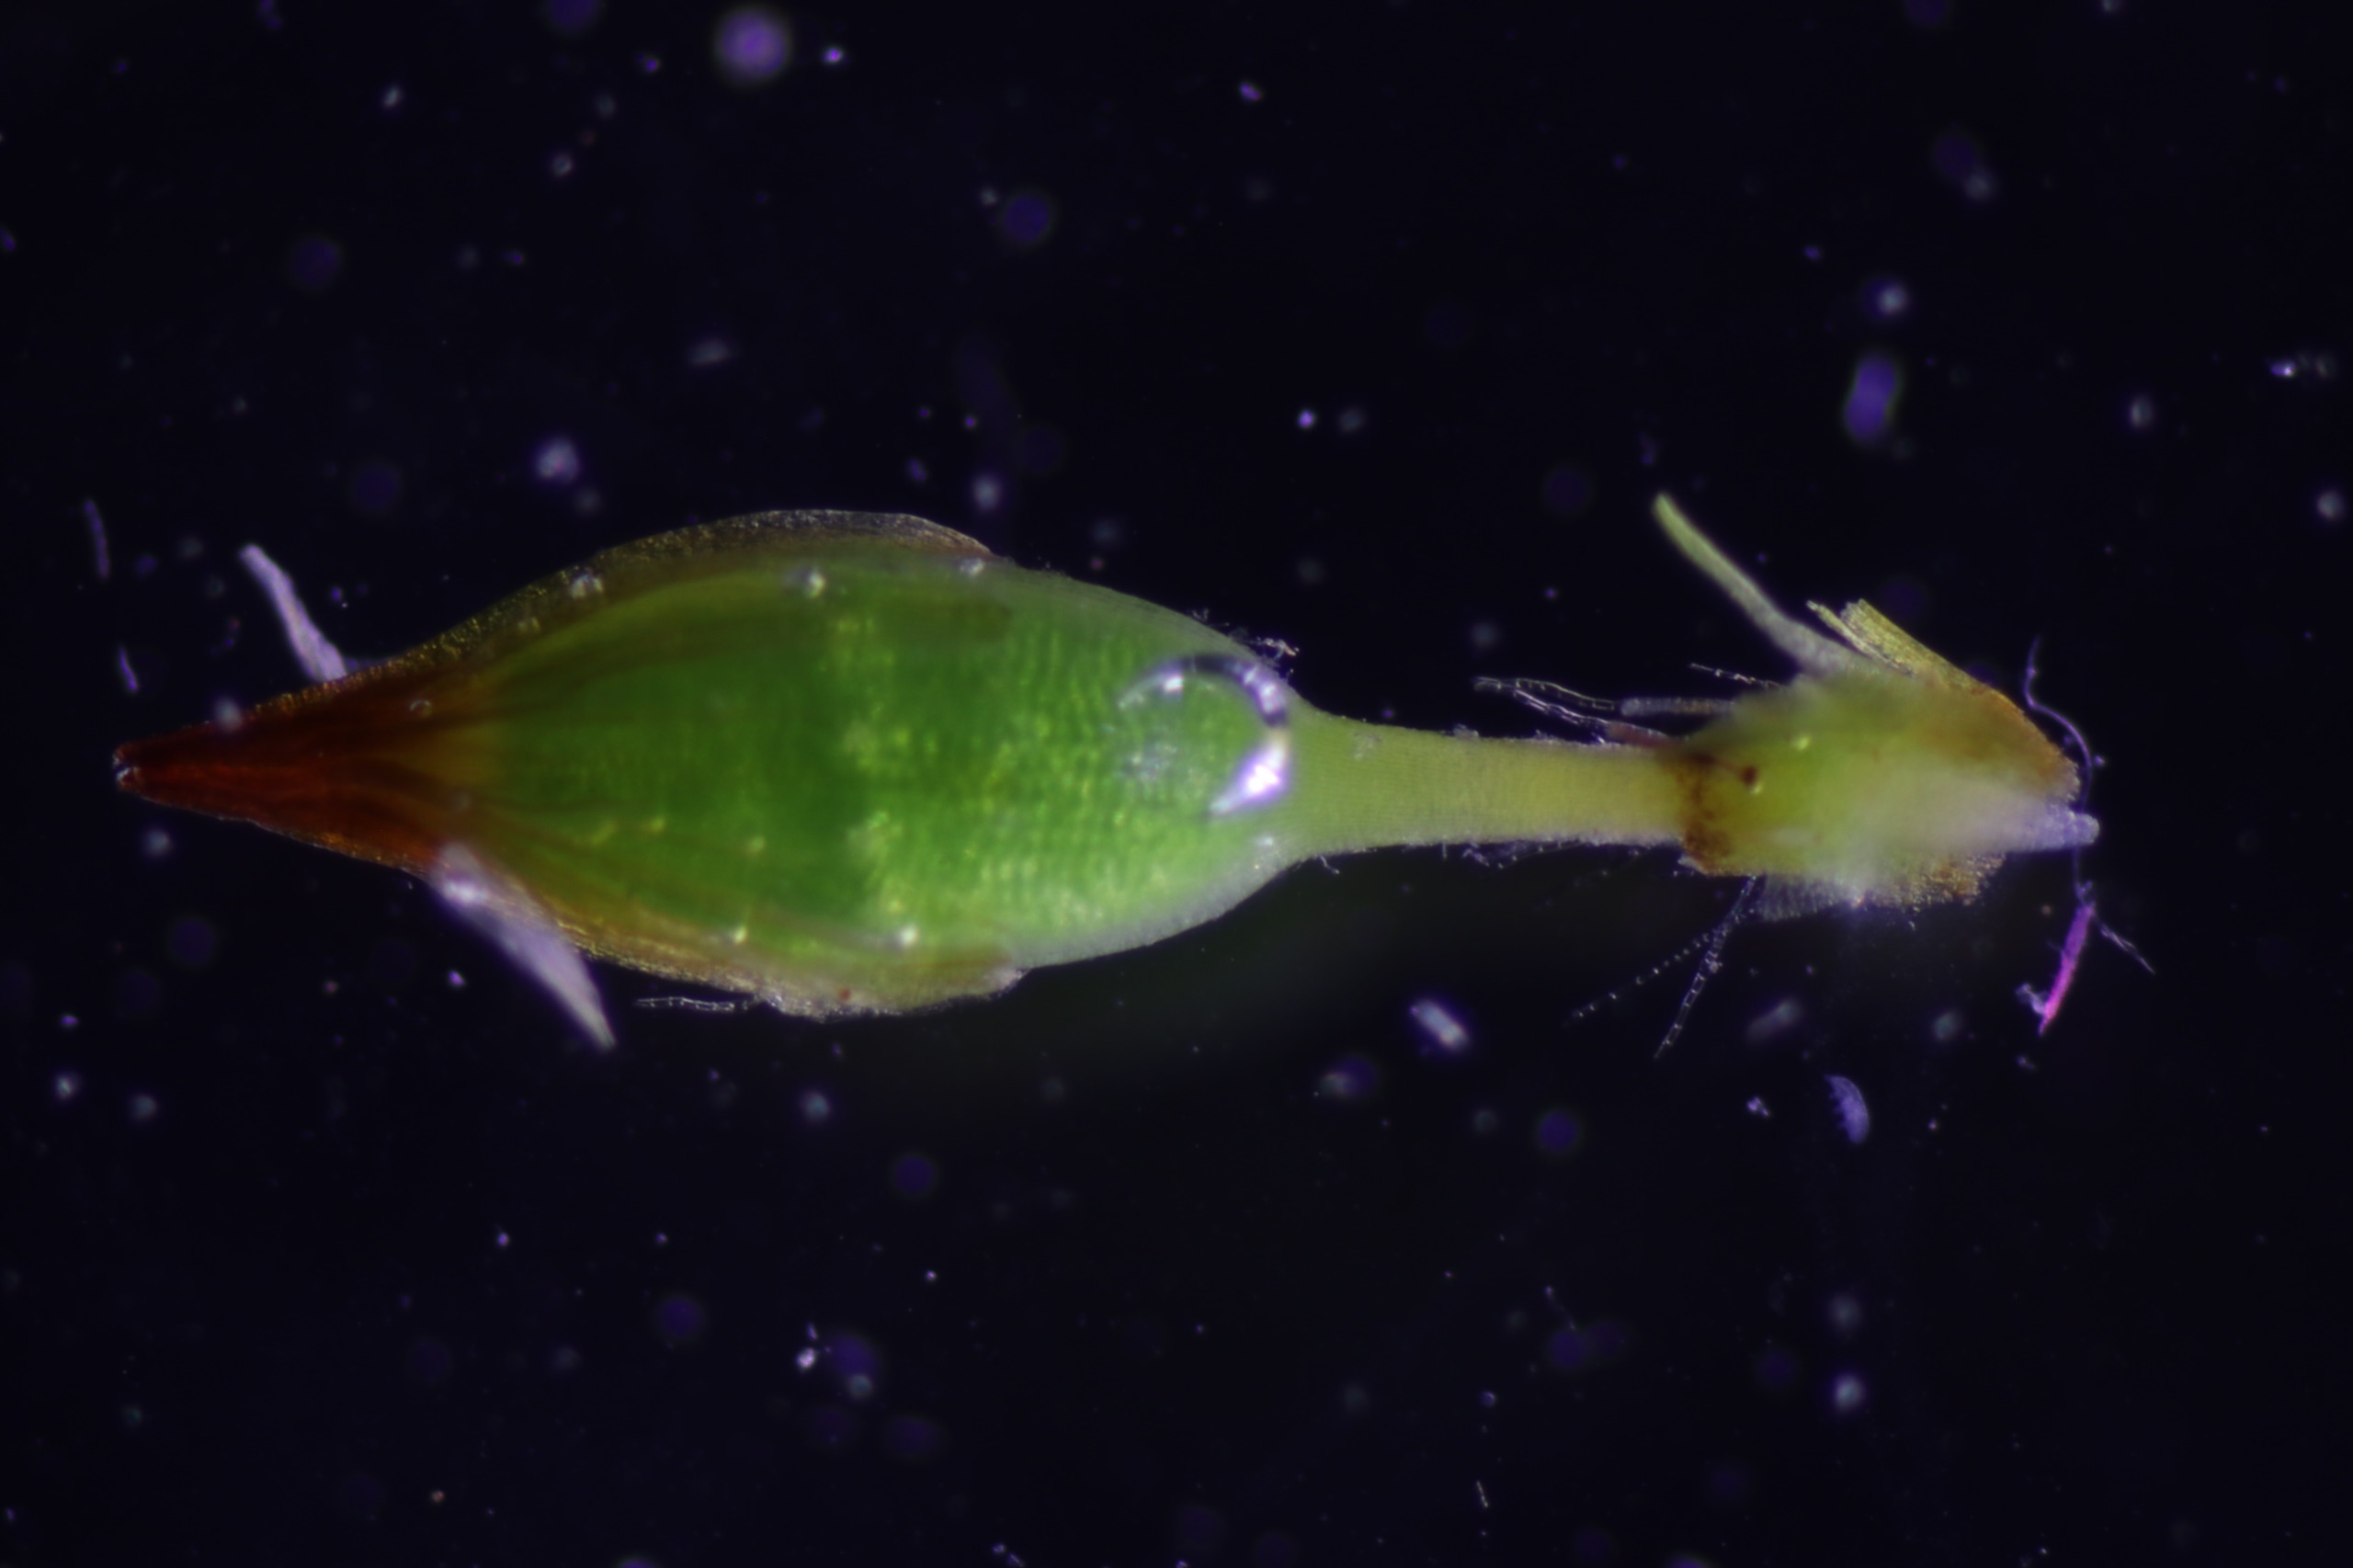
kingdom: Plantae
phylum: Bryophyta
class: Bryopsida
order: Orthotrichales
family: Orthotrichaceae
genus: Orthotrichum
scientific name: Orthotrichum stramineum
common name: Strågul furehætte
